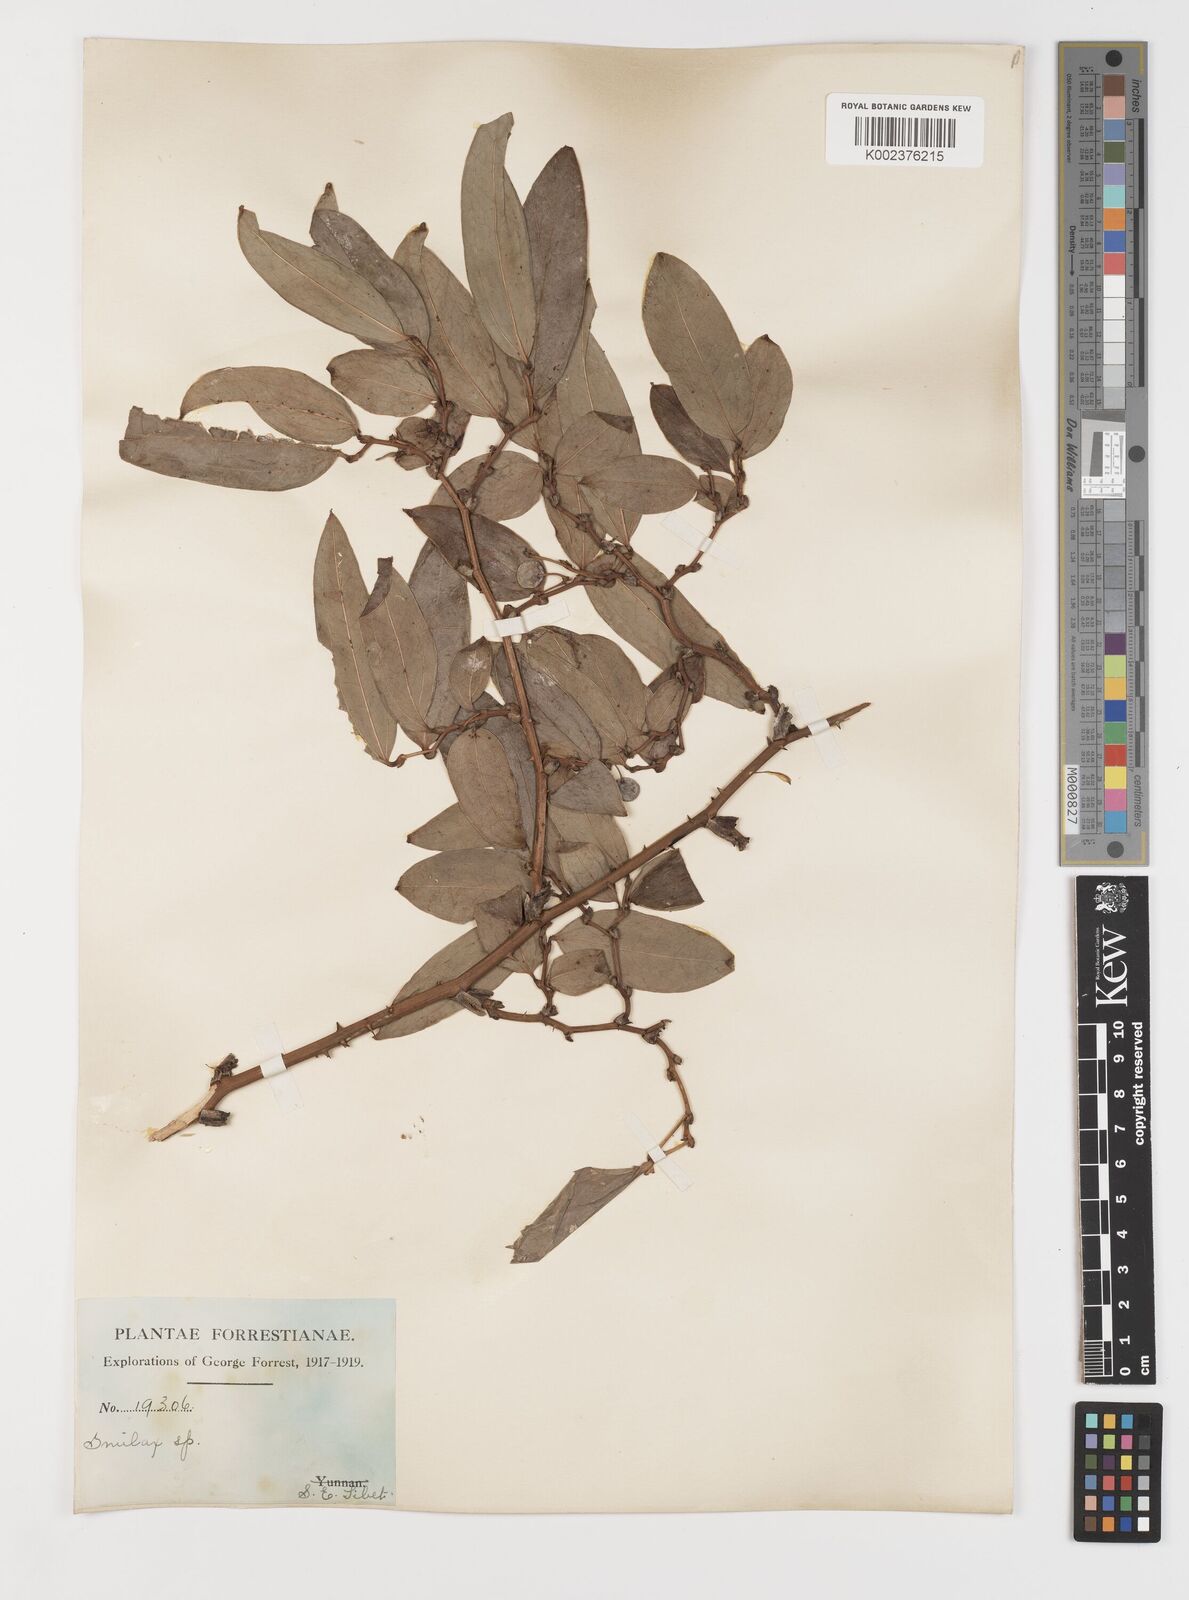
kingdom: Plantae
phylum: Tracheophyta
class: Liliopsida
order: Liliales
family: Smilacaceae
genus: Smilax
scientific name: Smilax ferox
